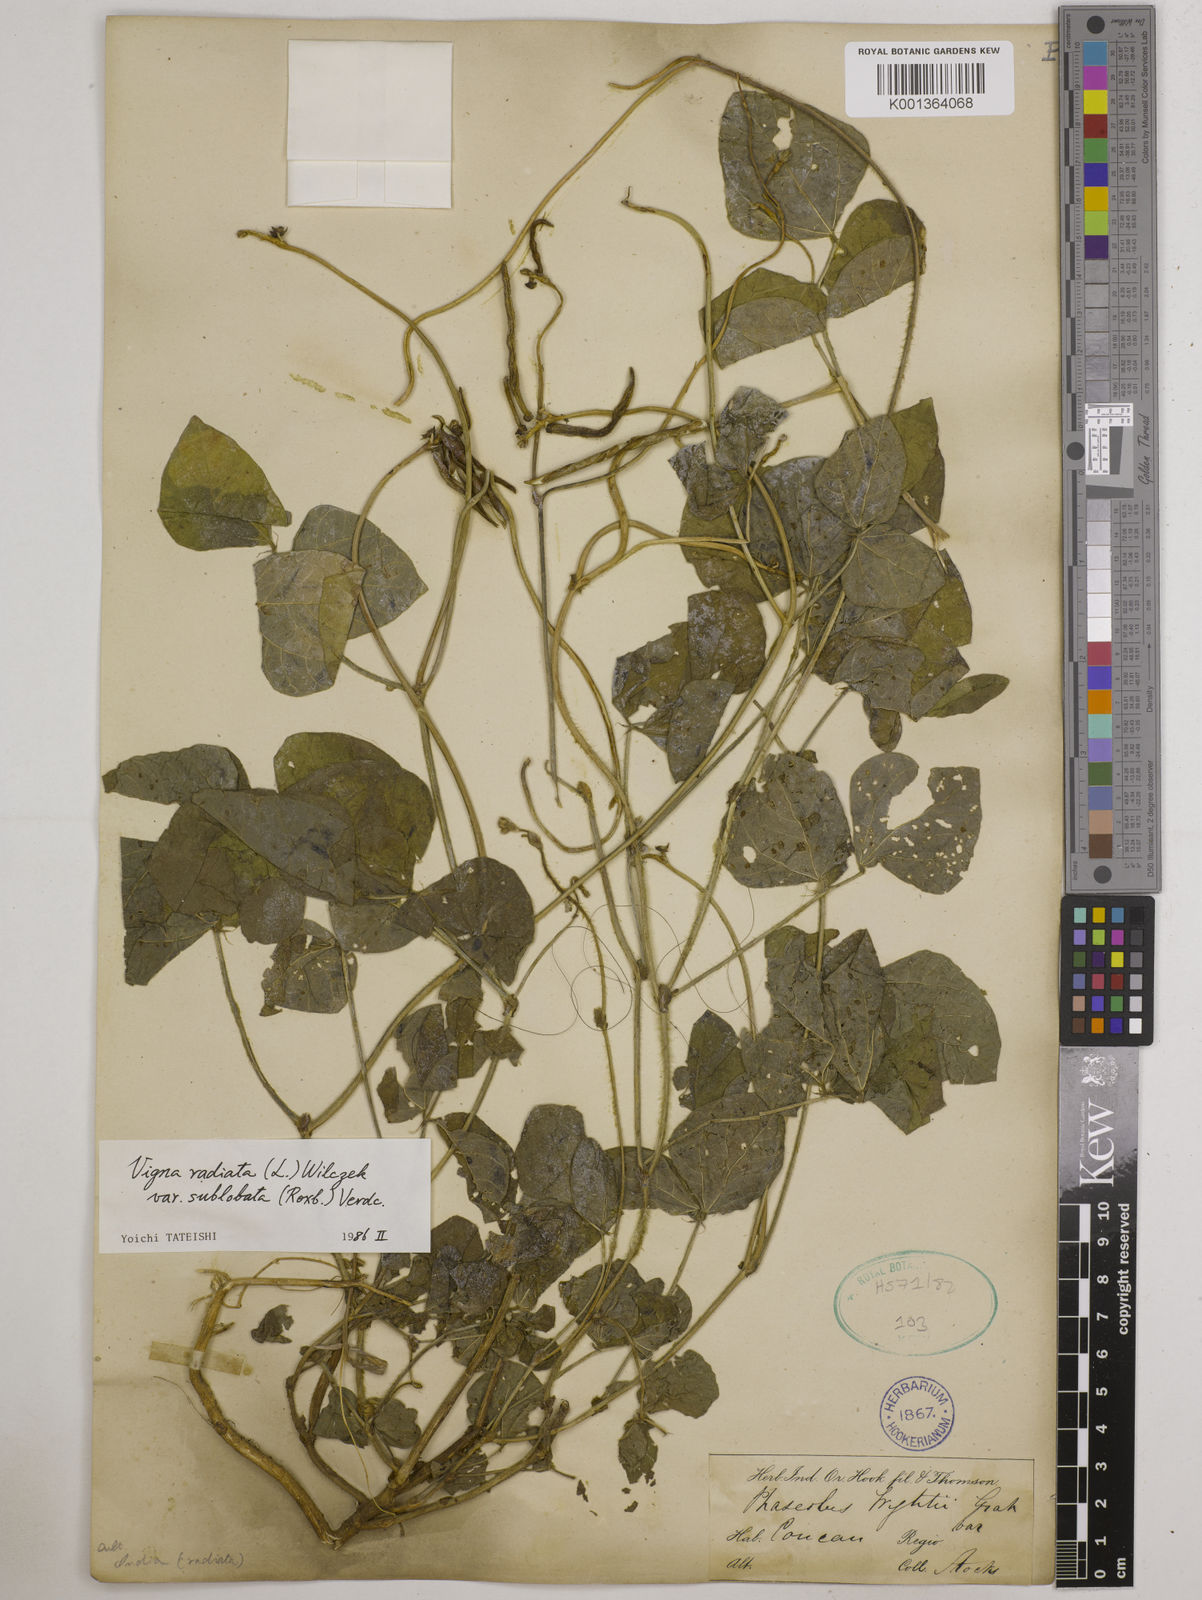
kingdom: Plantae
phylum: Tracheophyta
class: Magnoliopsida
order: Fabales
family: Fabaceae
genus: Vigna
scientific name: Vigna radiata
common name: Mung-bean
